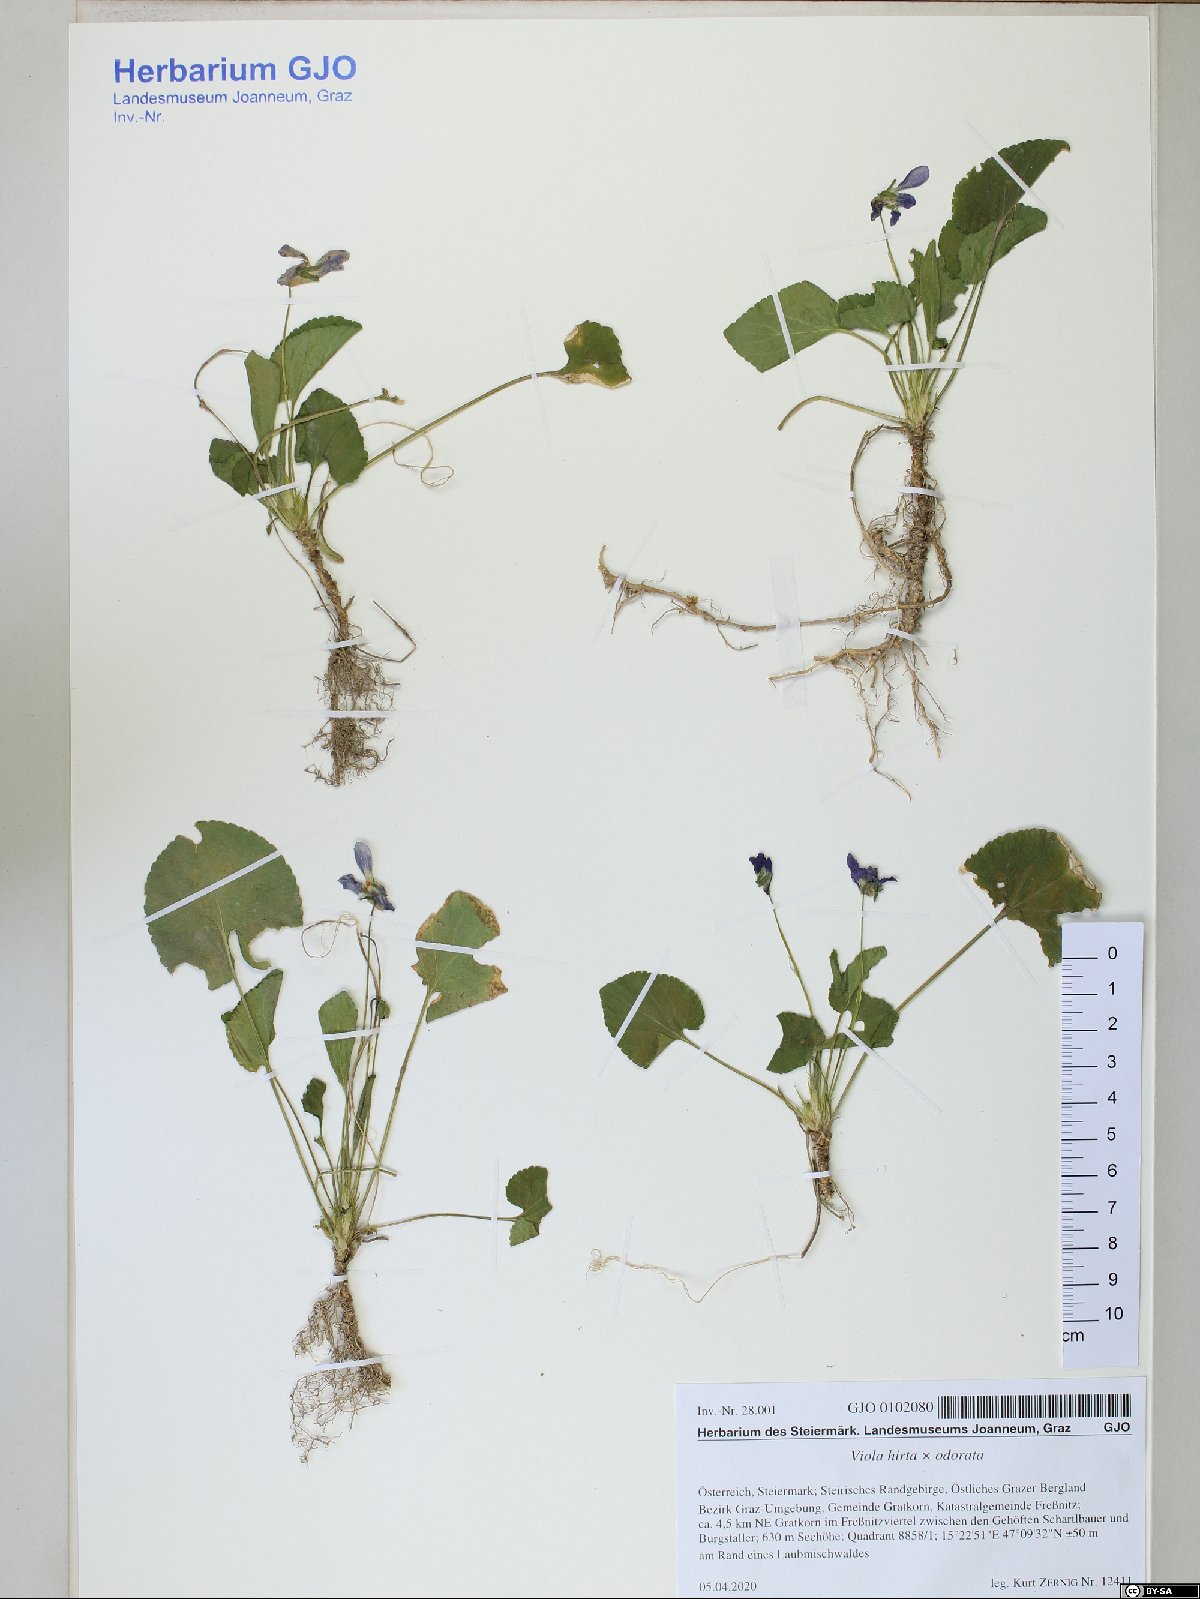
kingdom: Plantae
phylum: Tracheophyta
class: Magnoliopsida
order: Malpighiales
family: Violaceae
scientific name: Violaceae
